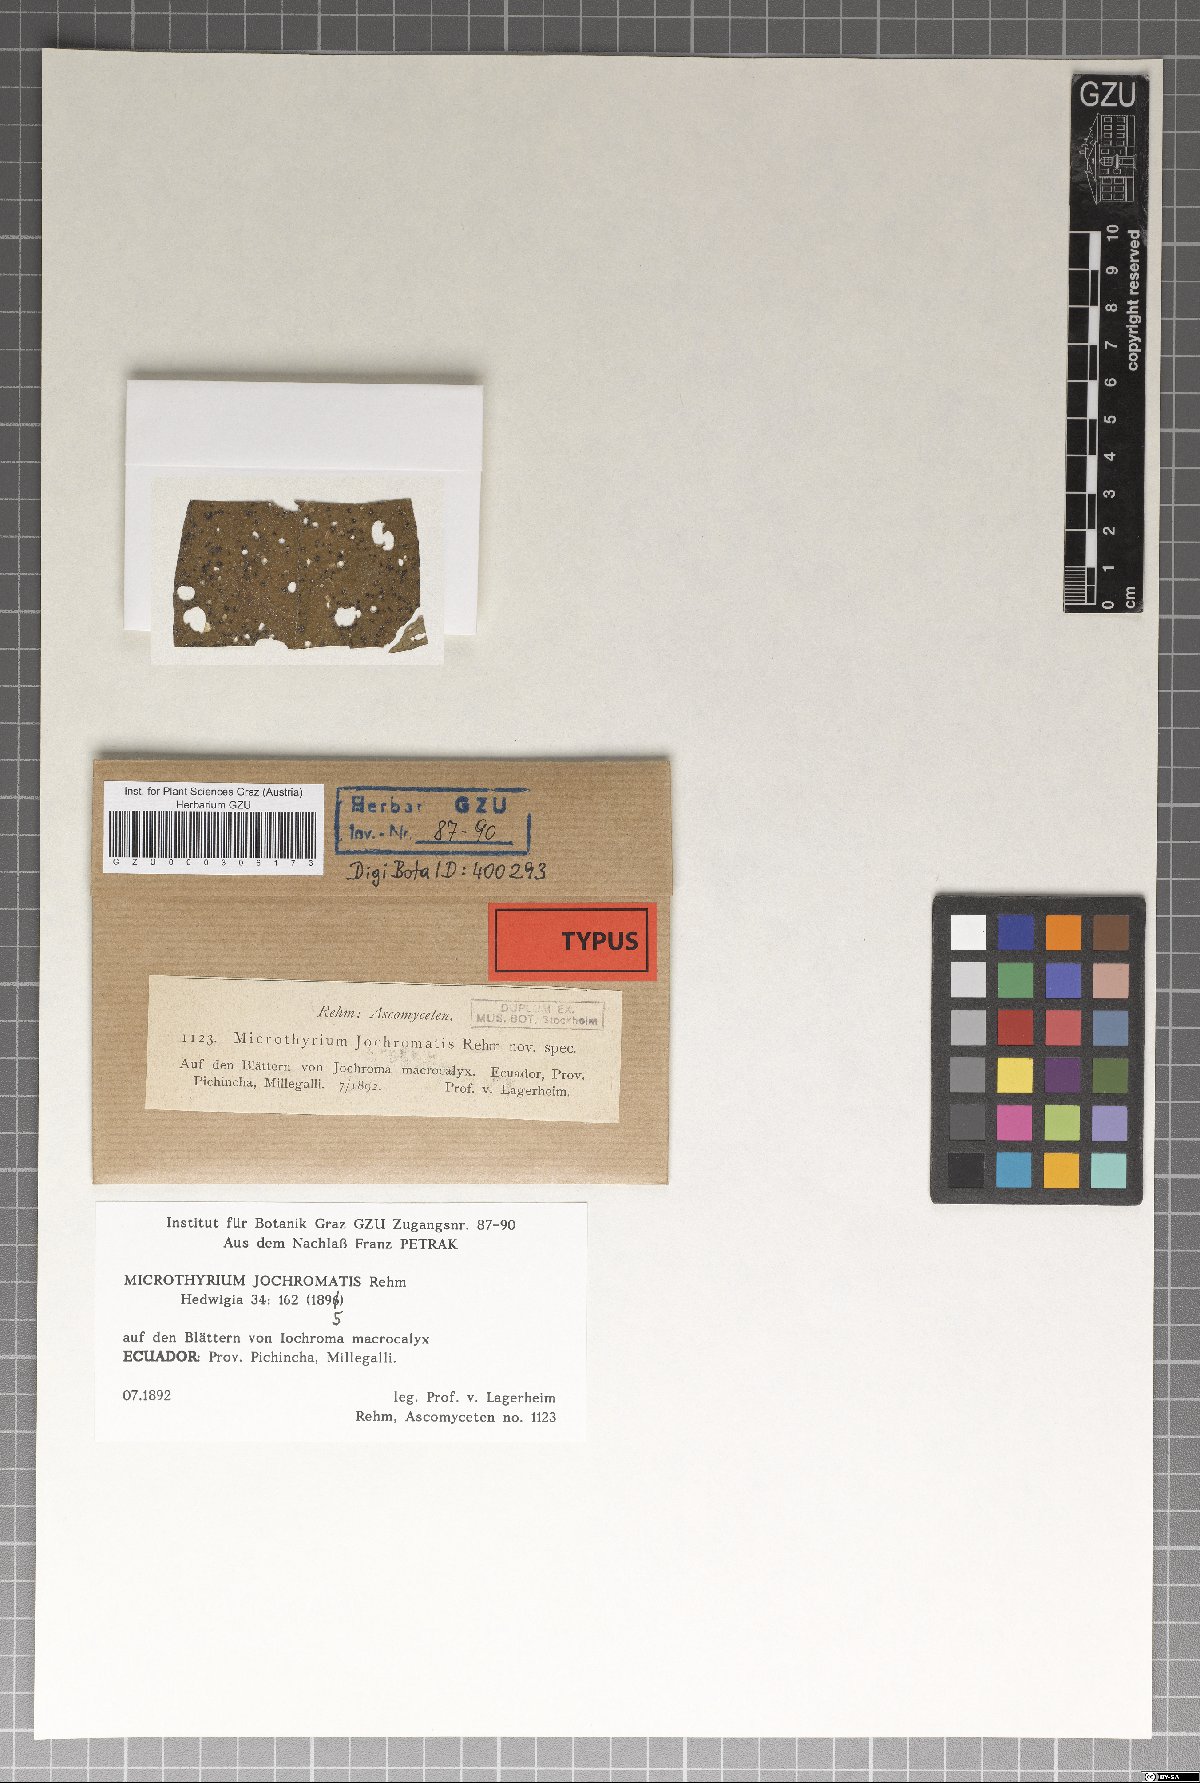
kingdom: Fungi
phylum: Ascomycota
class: Dothideomycetes
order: Microthyriales
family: Microthyriaceae
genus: Microthyrium
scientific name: Microthyrium
